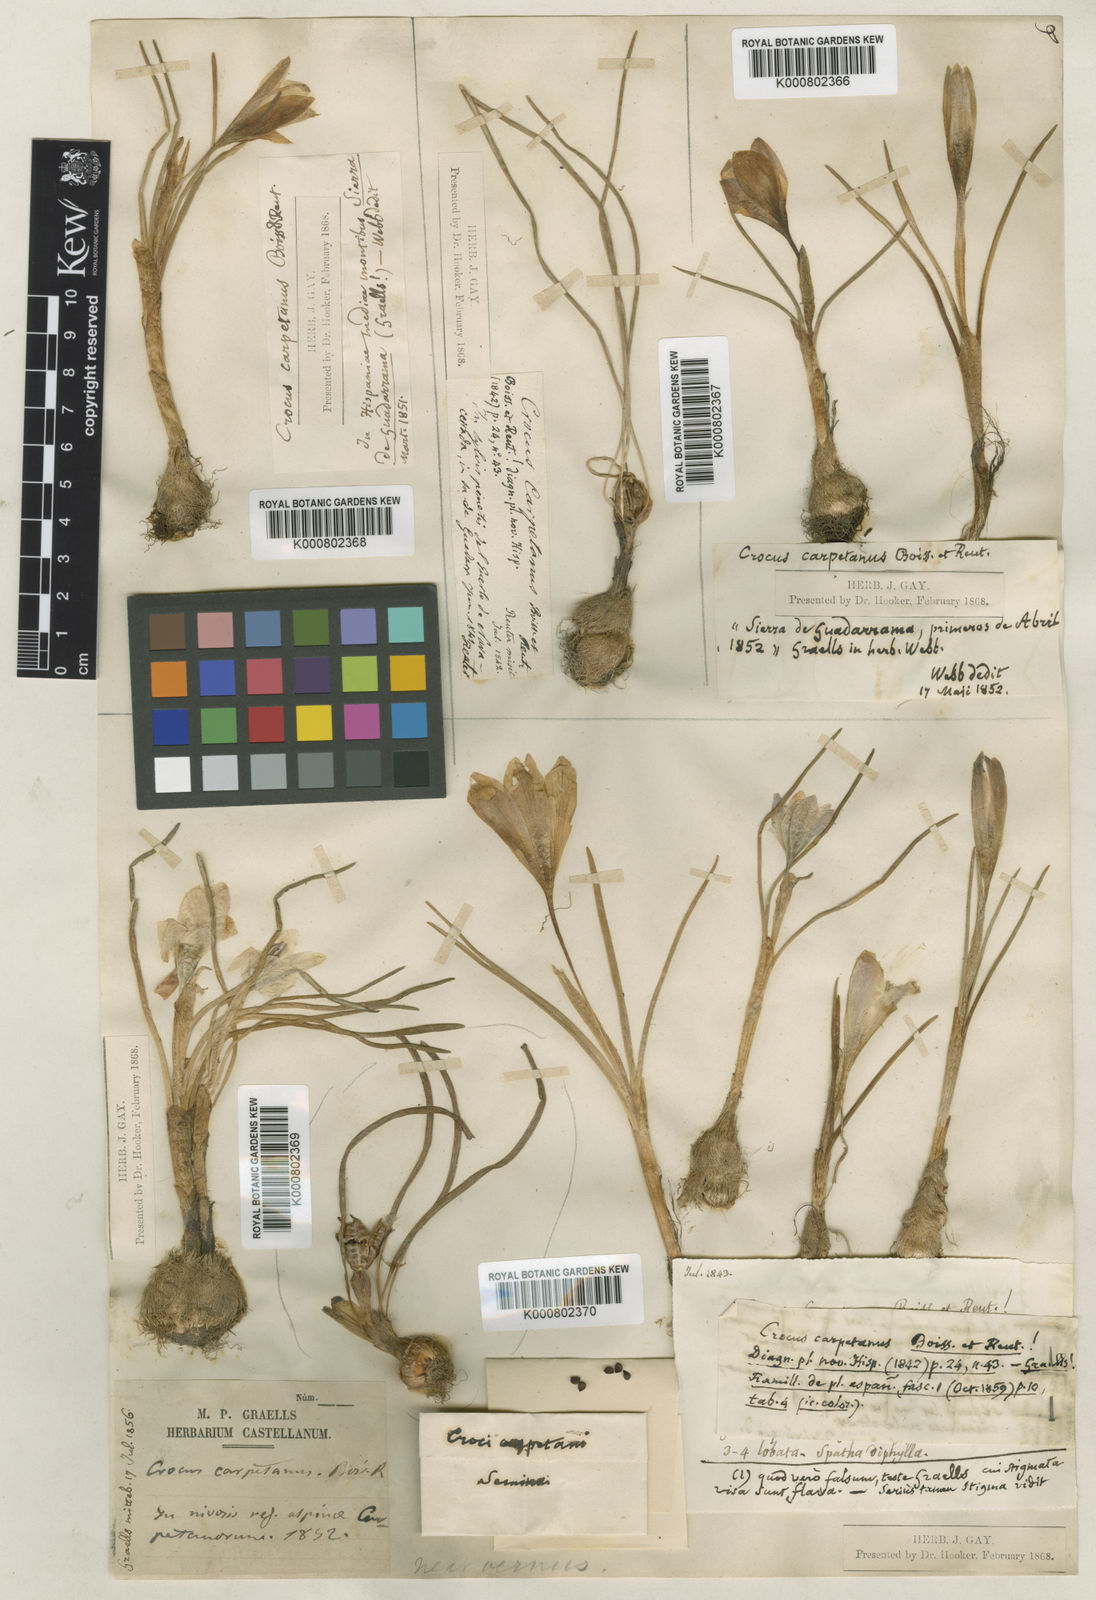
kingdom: Plantae
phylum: Tracheophyta
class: Liliopsida
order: Asparagales
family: Iridaceae
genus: Crocus
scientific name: Crocus carpetanus
